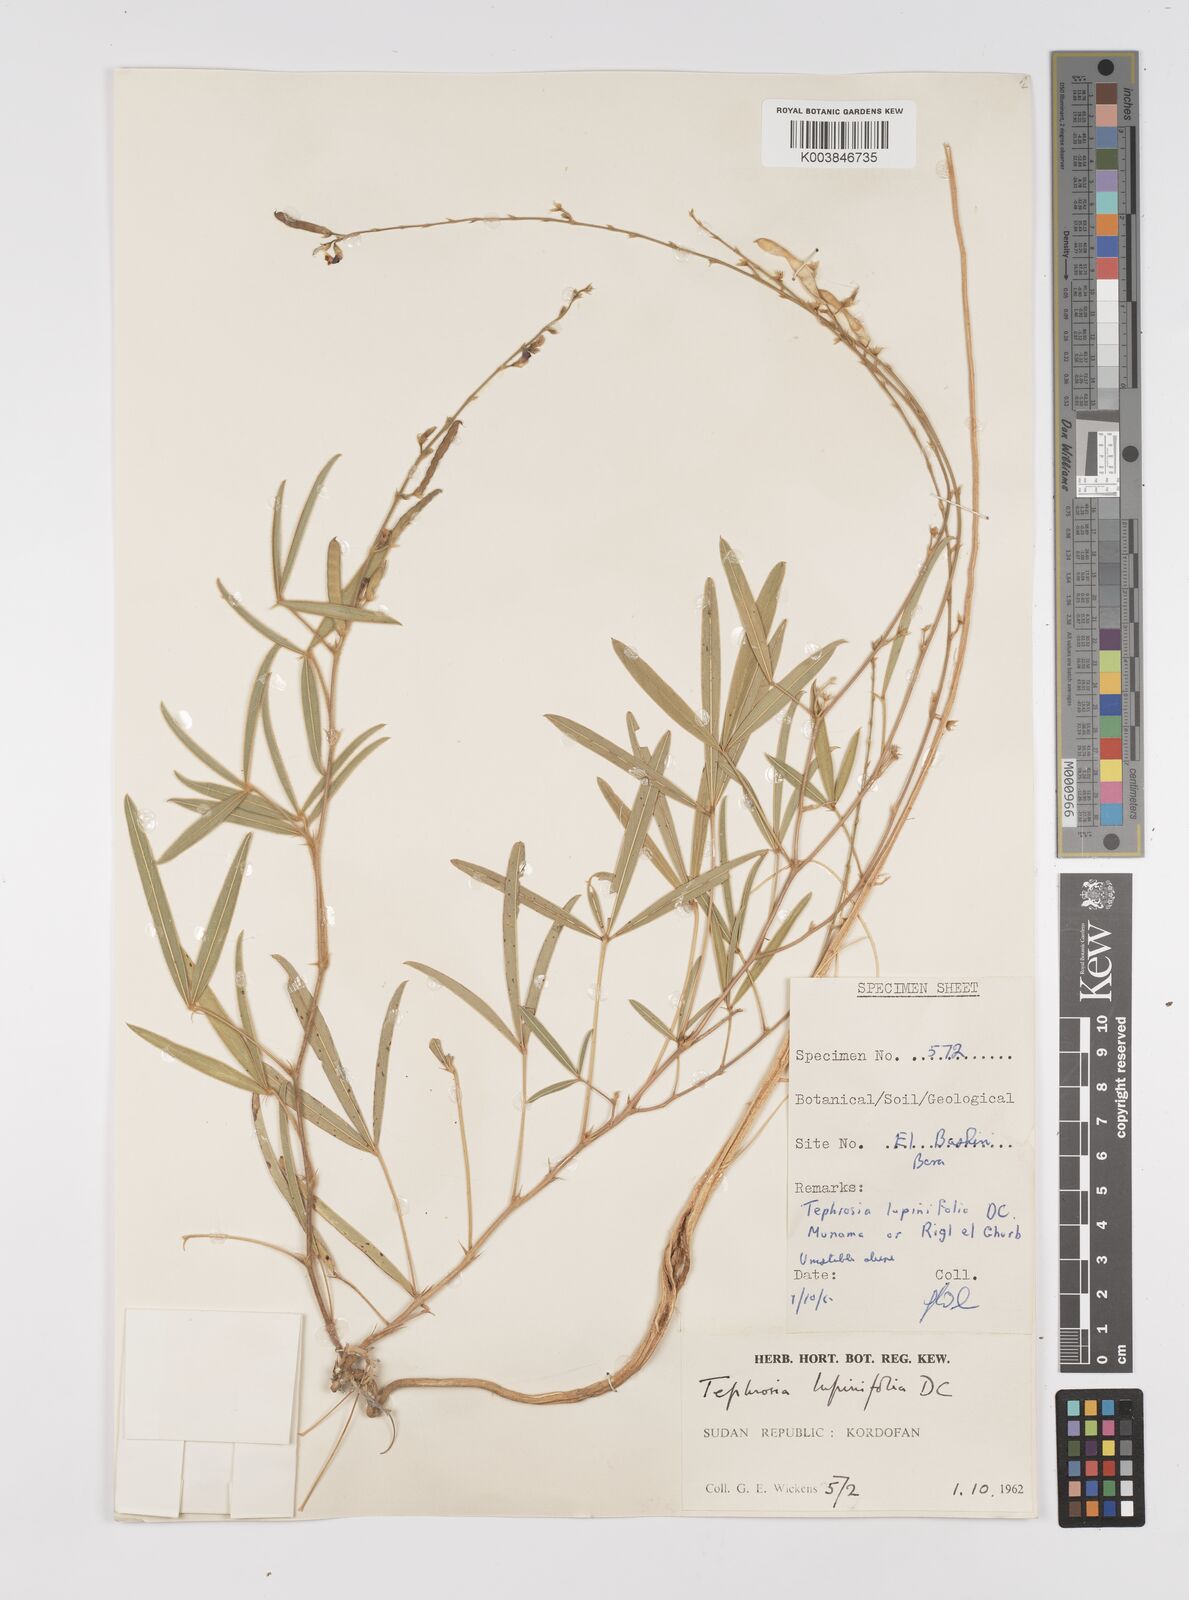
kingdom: Plantae
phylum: Tracheophyta
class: Magnoliopsida
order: Fabales
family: Fabaceae
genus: Tephrosia
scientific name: Tephrosia lupinifolia
